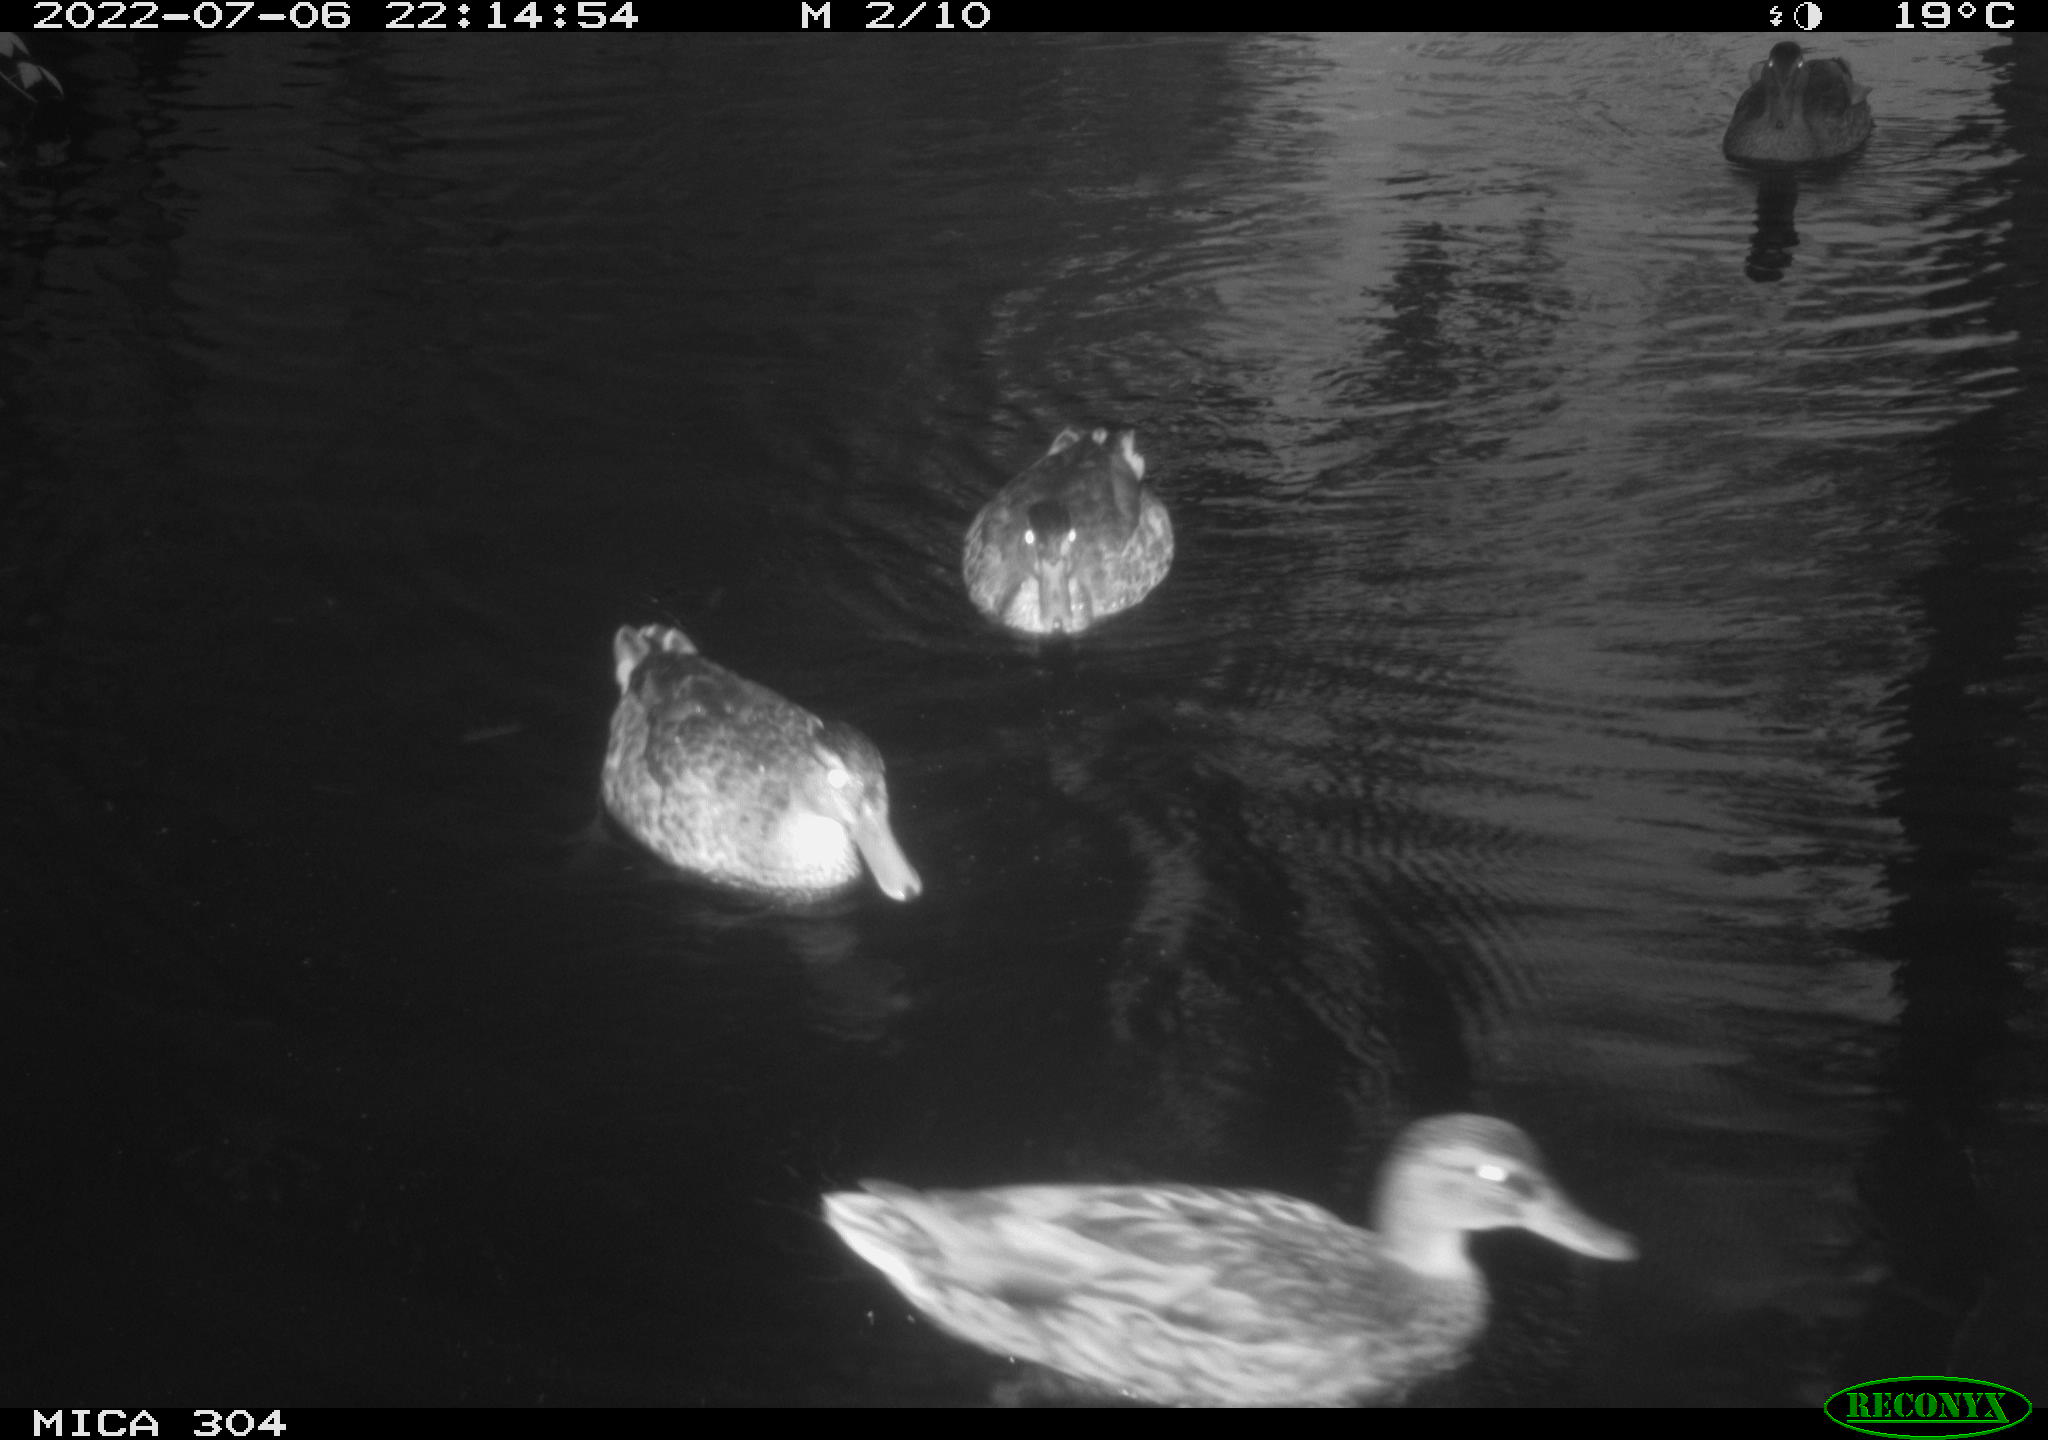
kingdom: Animalia
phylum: Chordata
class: Aves
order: Gruiformes
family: Rallidae
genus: Fulica
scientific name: Fulica atra
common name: Eurasian coot
